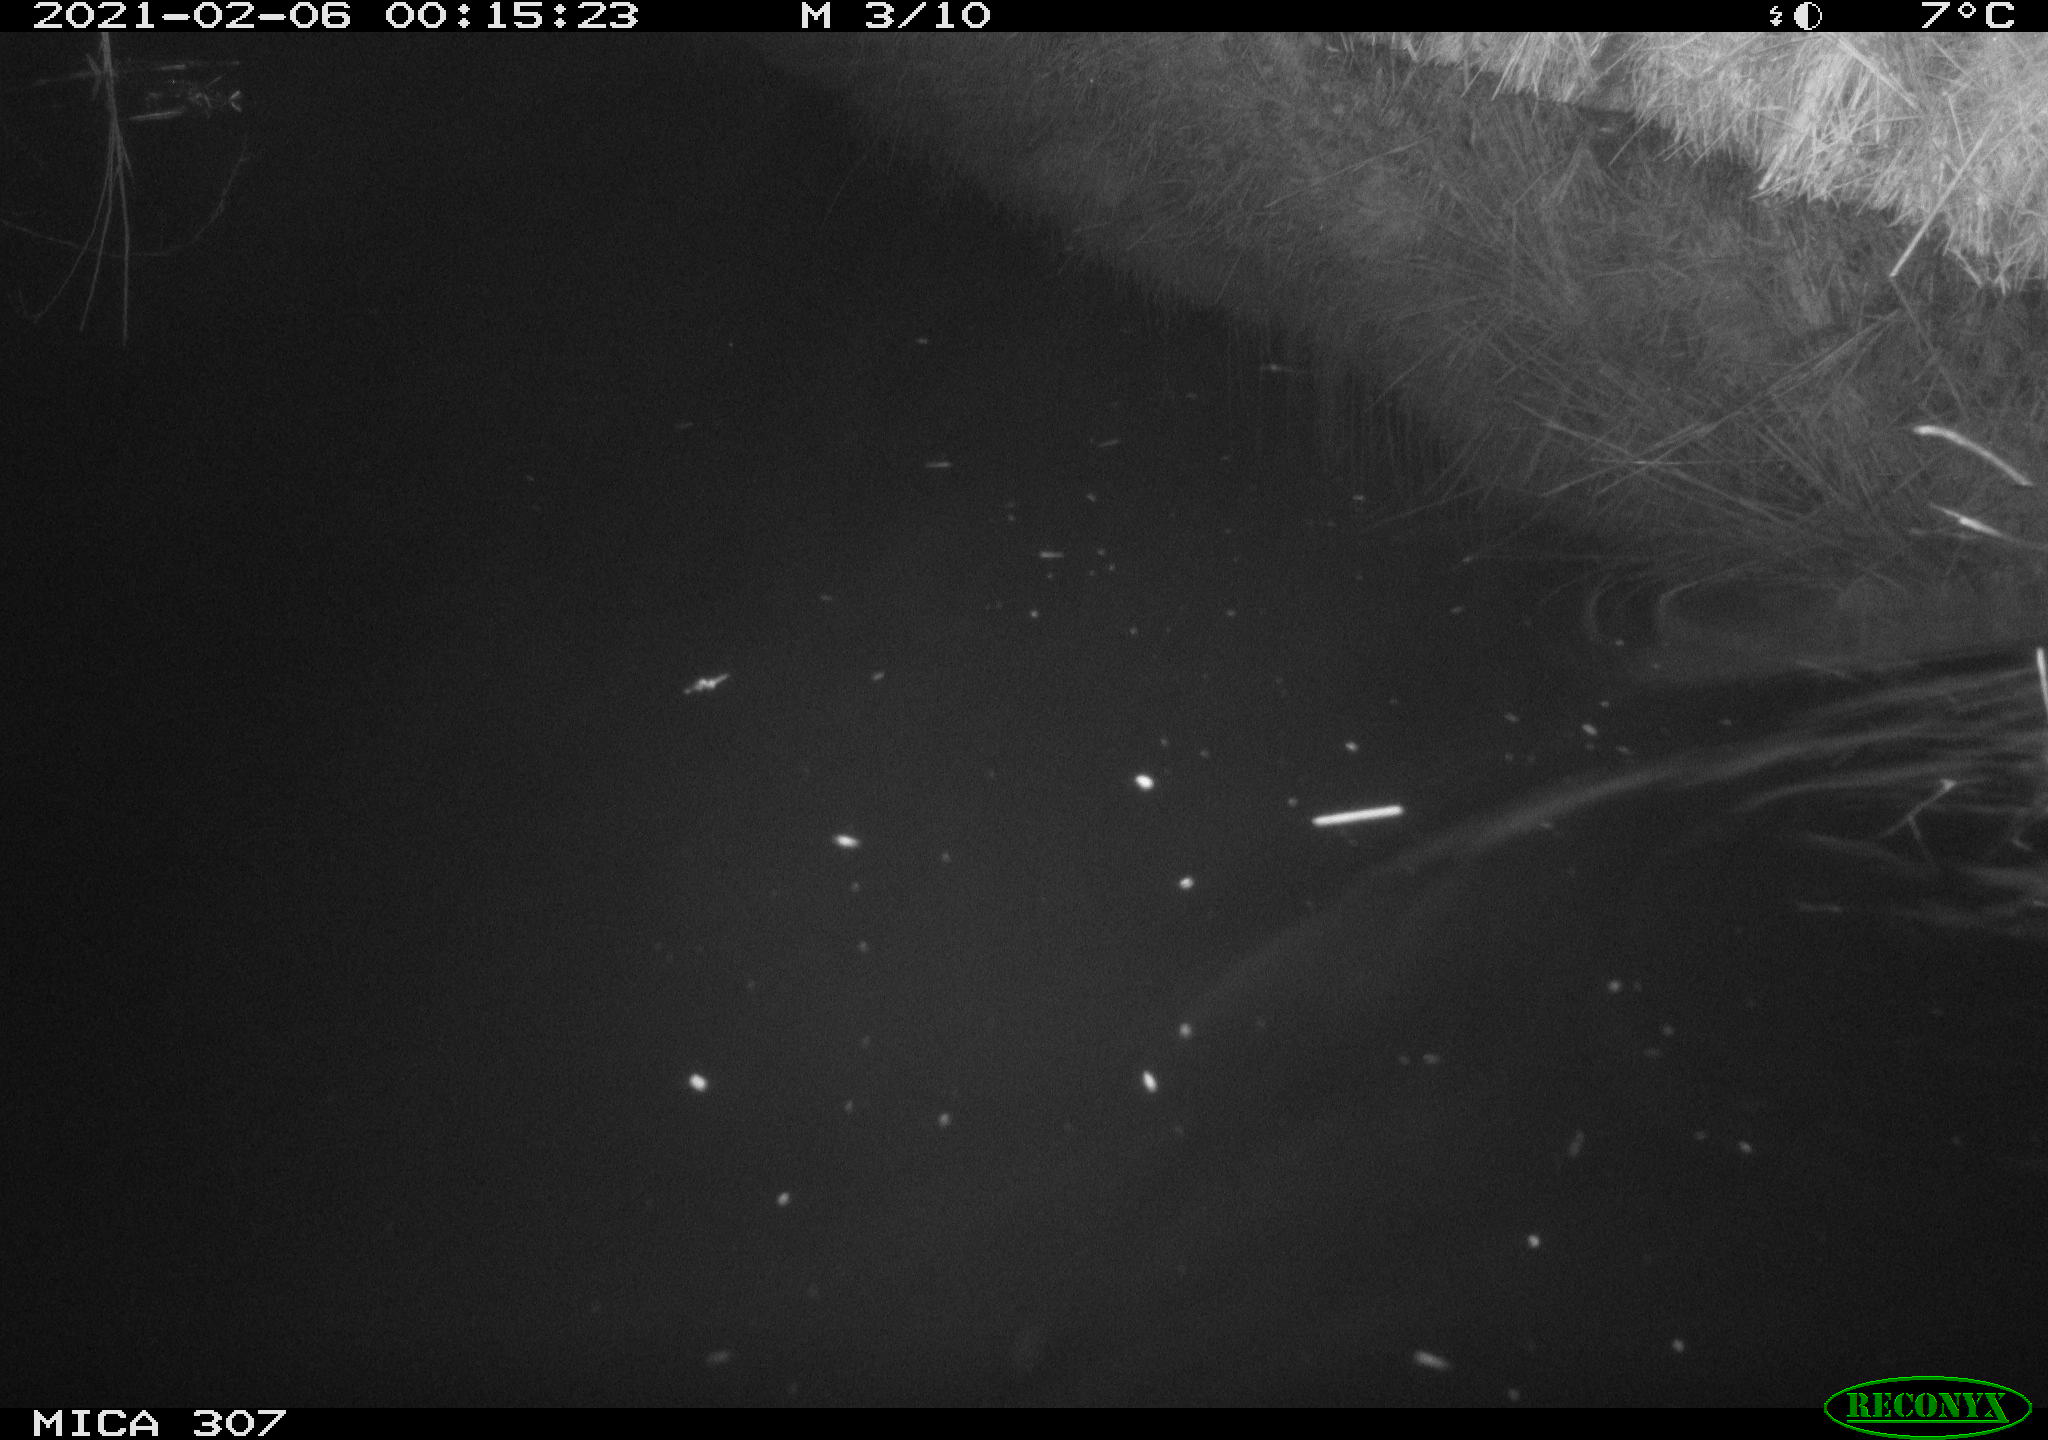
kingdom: Animalia
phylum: Chordata
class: Mammalia
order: Rodentia
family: Cricetidae
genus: Ondatra
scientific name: Ondatra zibethicus
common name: Muskrat
